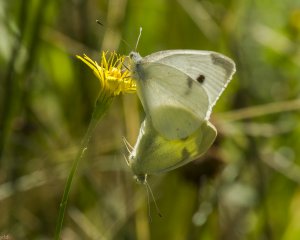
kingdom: Animalia
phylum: Arthropoda
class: Insecta
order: Lepidoptera
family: Pieridae
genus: Pieris
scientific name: Pieris rapae
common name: Cabbage White
